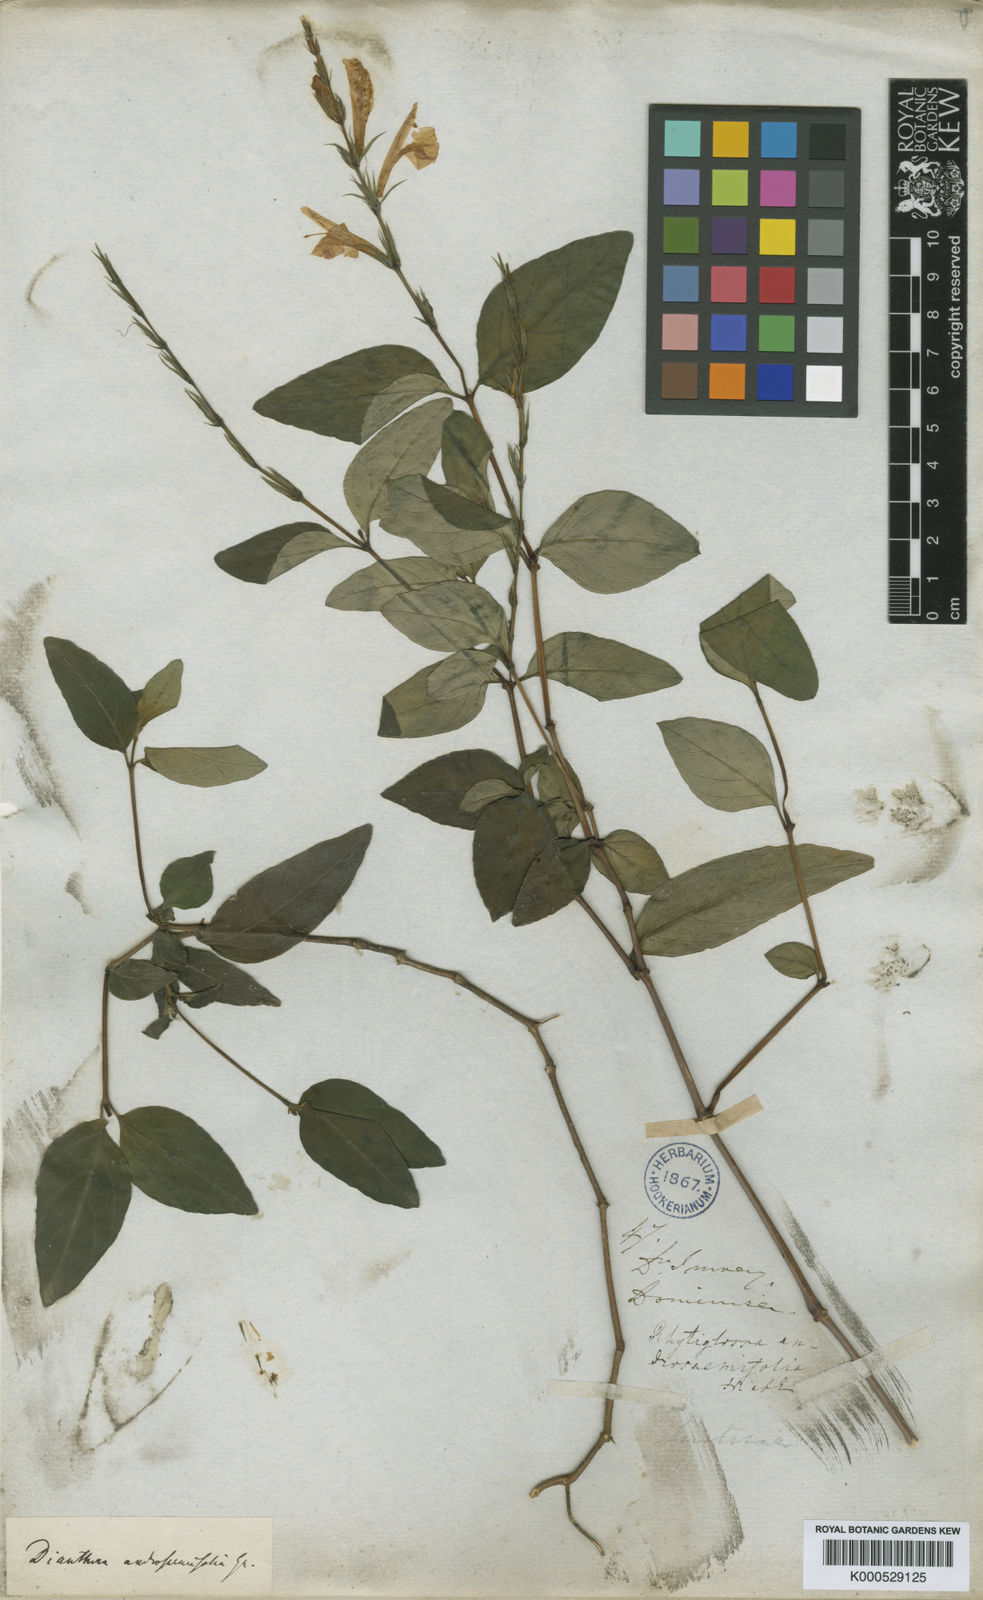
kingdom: Plantae
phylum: Tracheophyta
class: Magnoliopsida
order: Lamiales
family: Acanthaceae
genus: Dianthera
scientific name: Dianthera androsaemifolia
